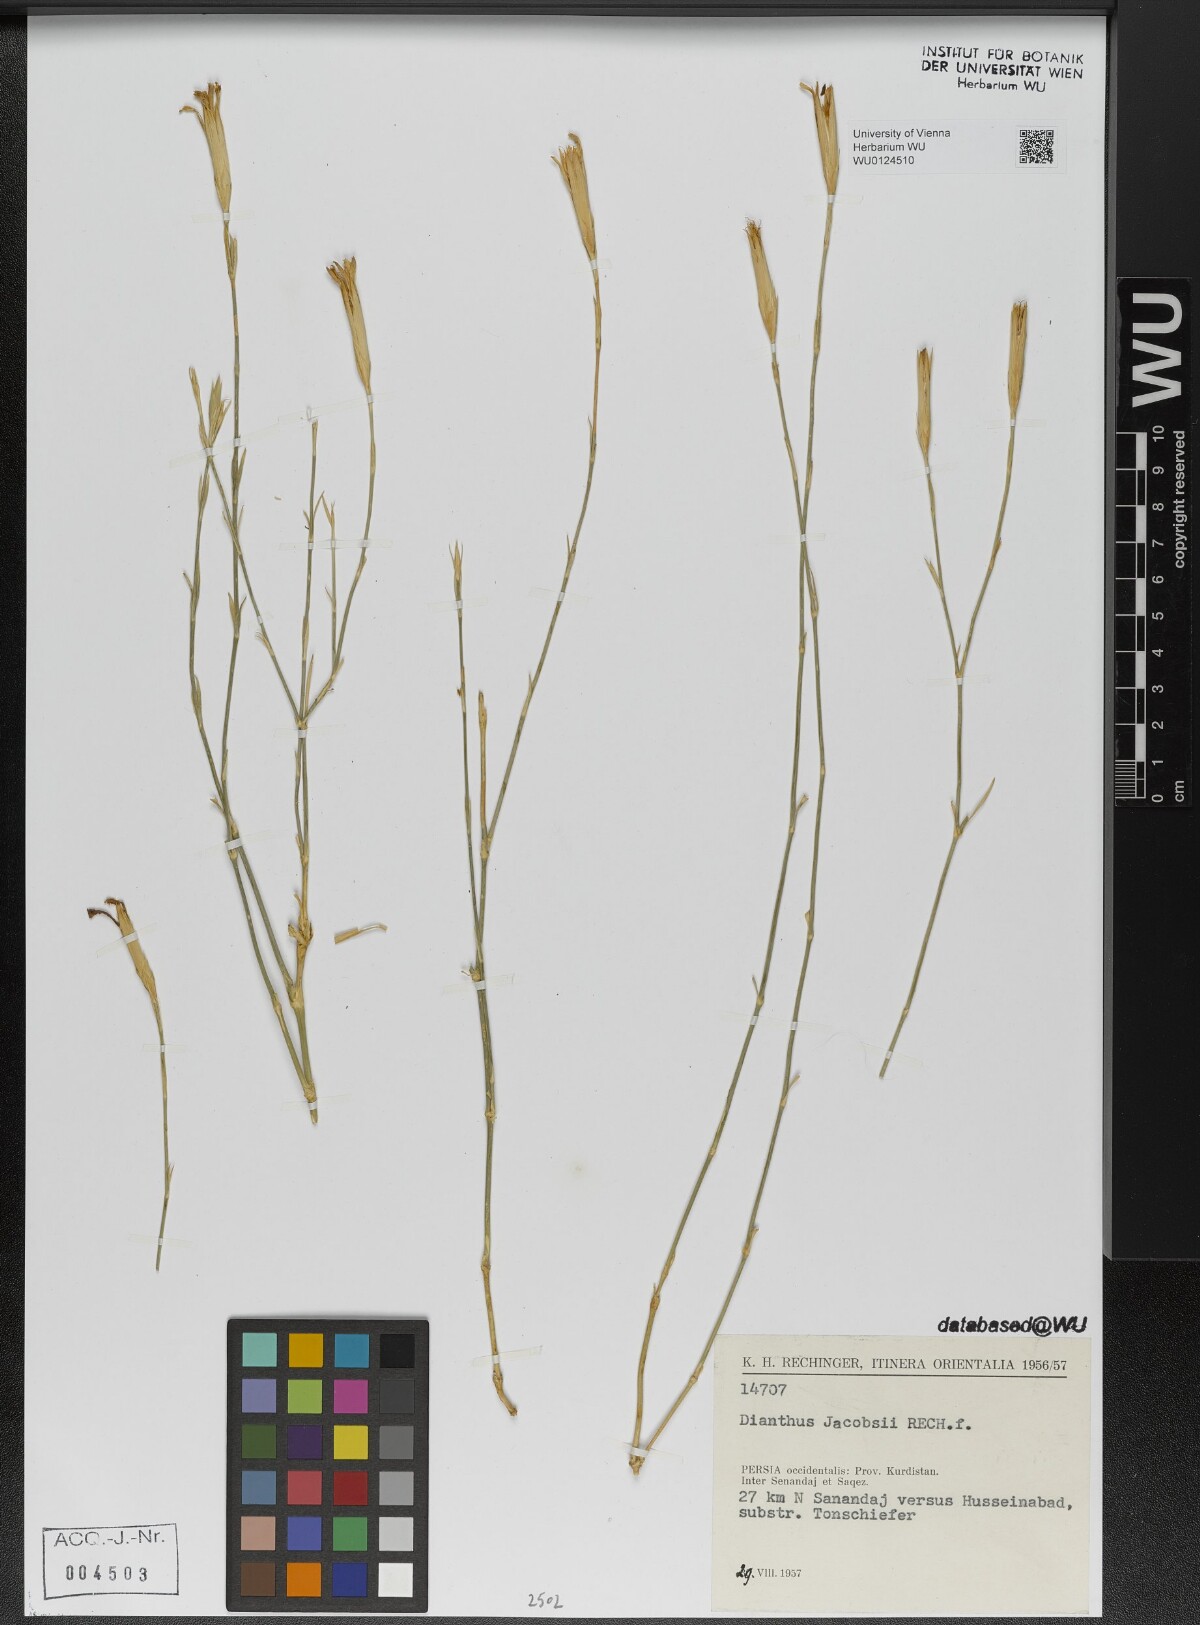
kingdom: Plantae
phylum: Tracheophyta
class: Magnoliopsida
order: Caryophyllales
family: Caryophyllaceae
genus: Dianthus
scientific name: Dianthus jacobsii
